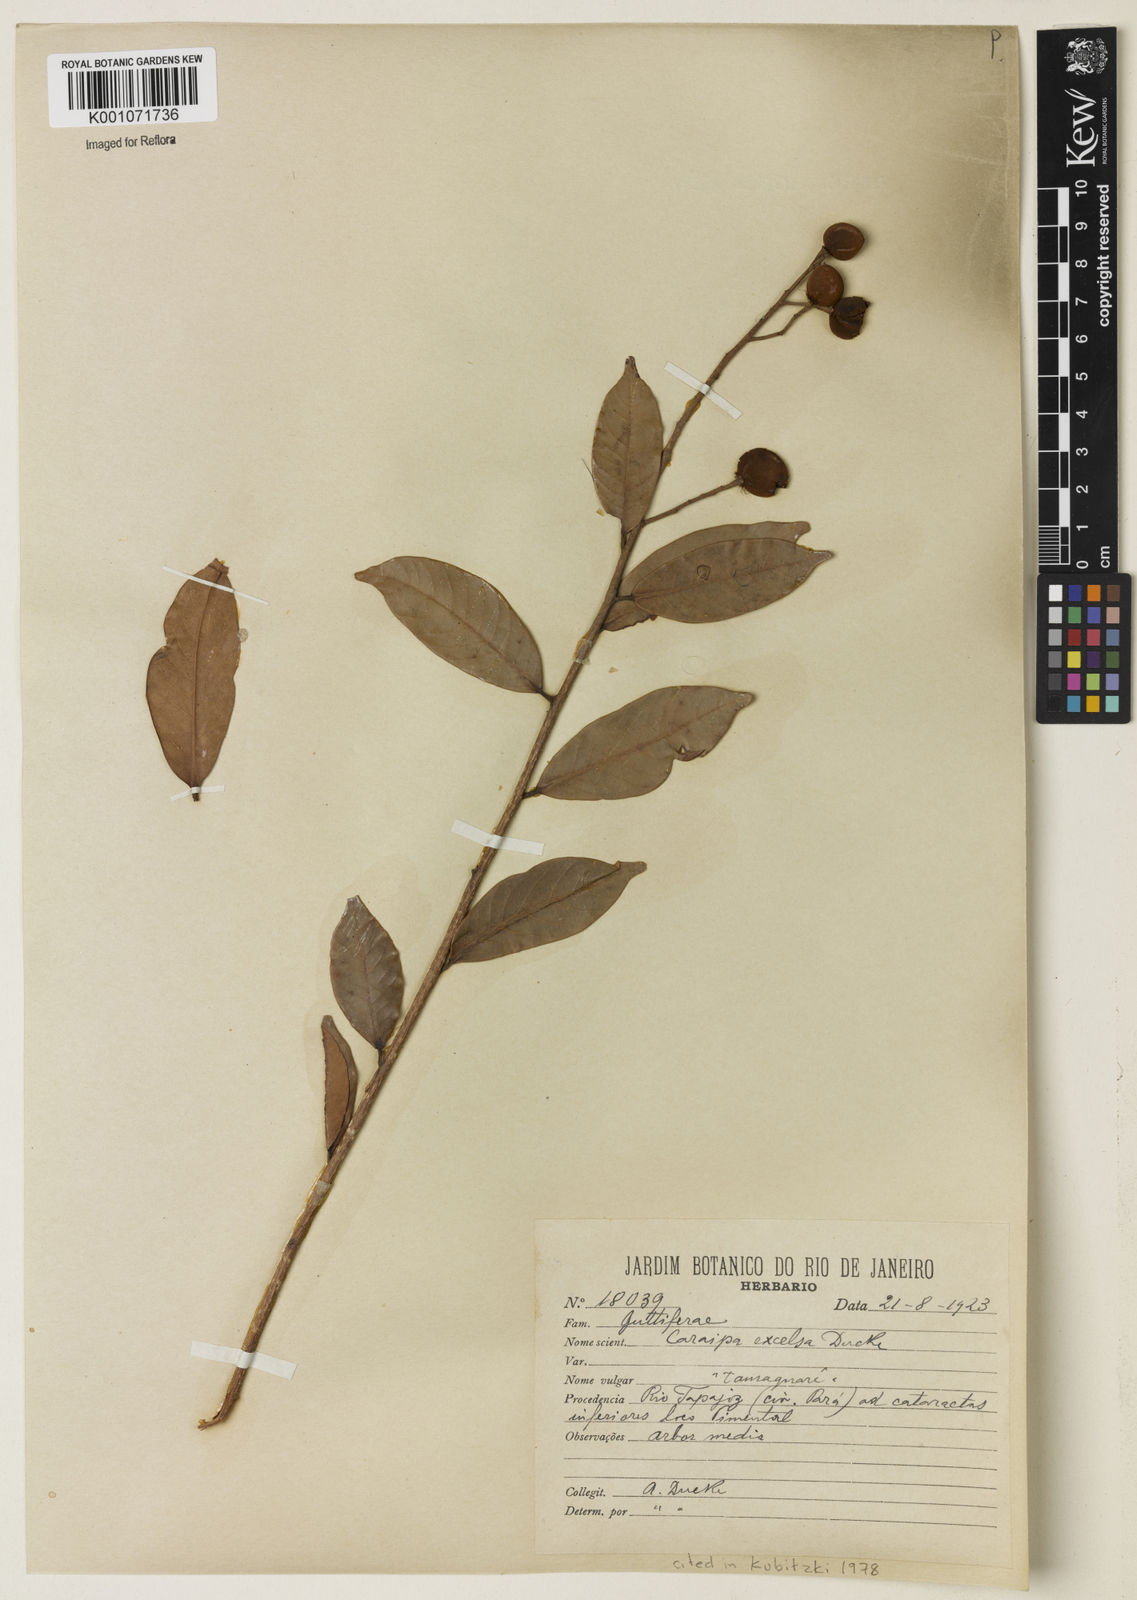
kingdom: Plantae
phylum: Tracheophyta
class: Magnoliopsida
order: Malpighiales
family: Calophyllaceae
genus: Caraipa
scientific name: Caraipa densifolia
